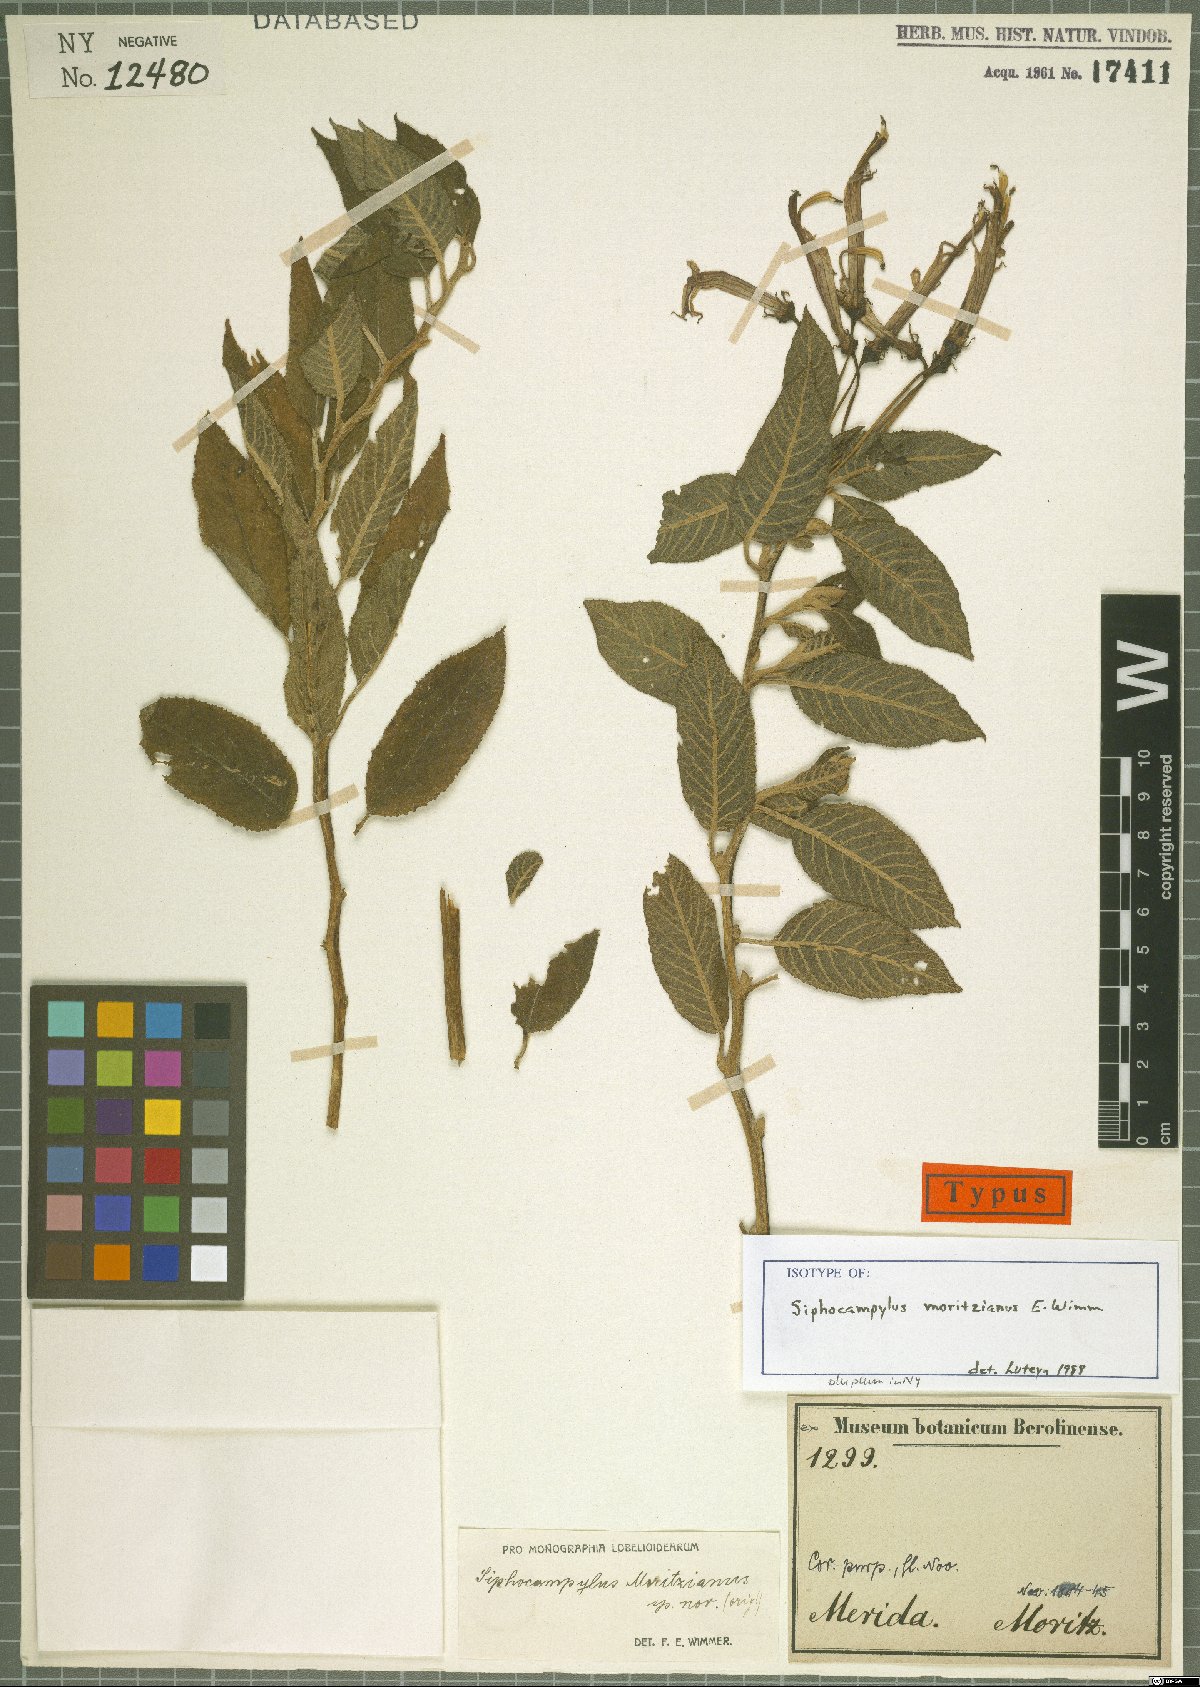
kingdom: Plantae
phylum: Tracheophyta
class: Magnoliopsida
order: Asterales
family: Campanulaceae
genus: Siphocampylus
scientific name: Siphocampylus moritzianus
